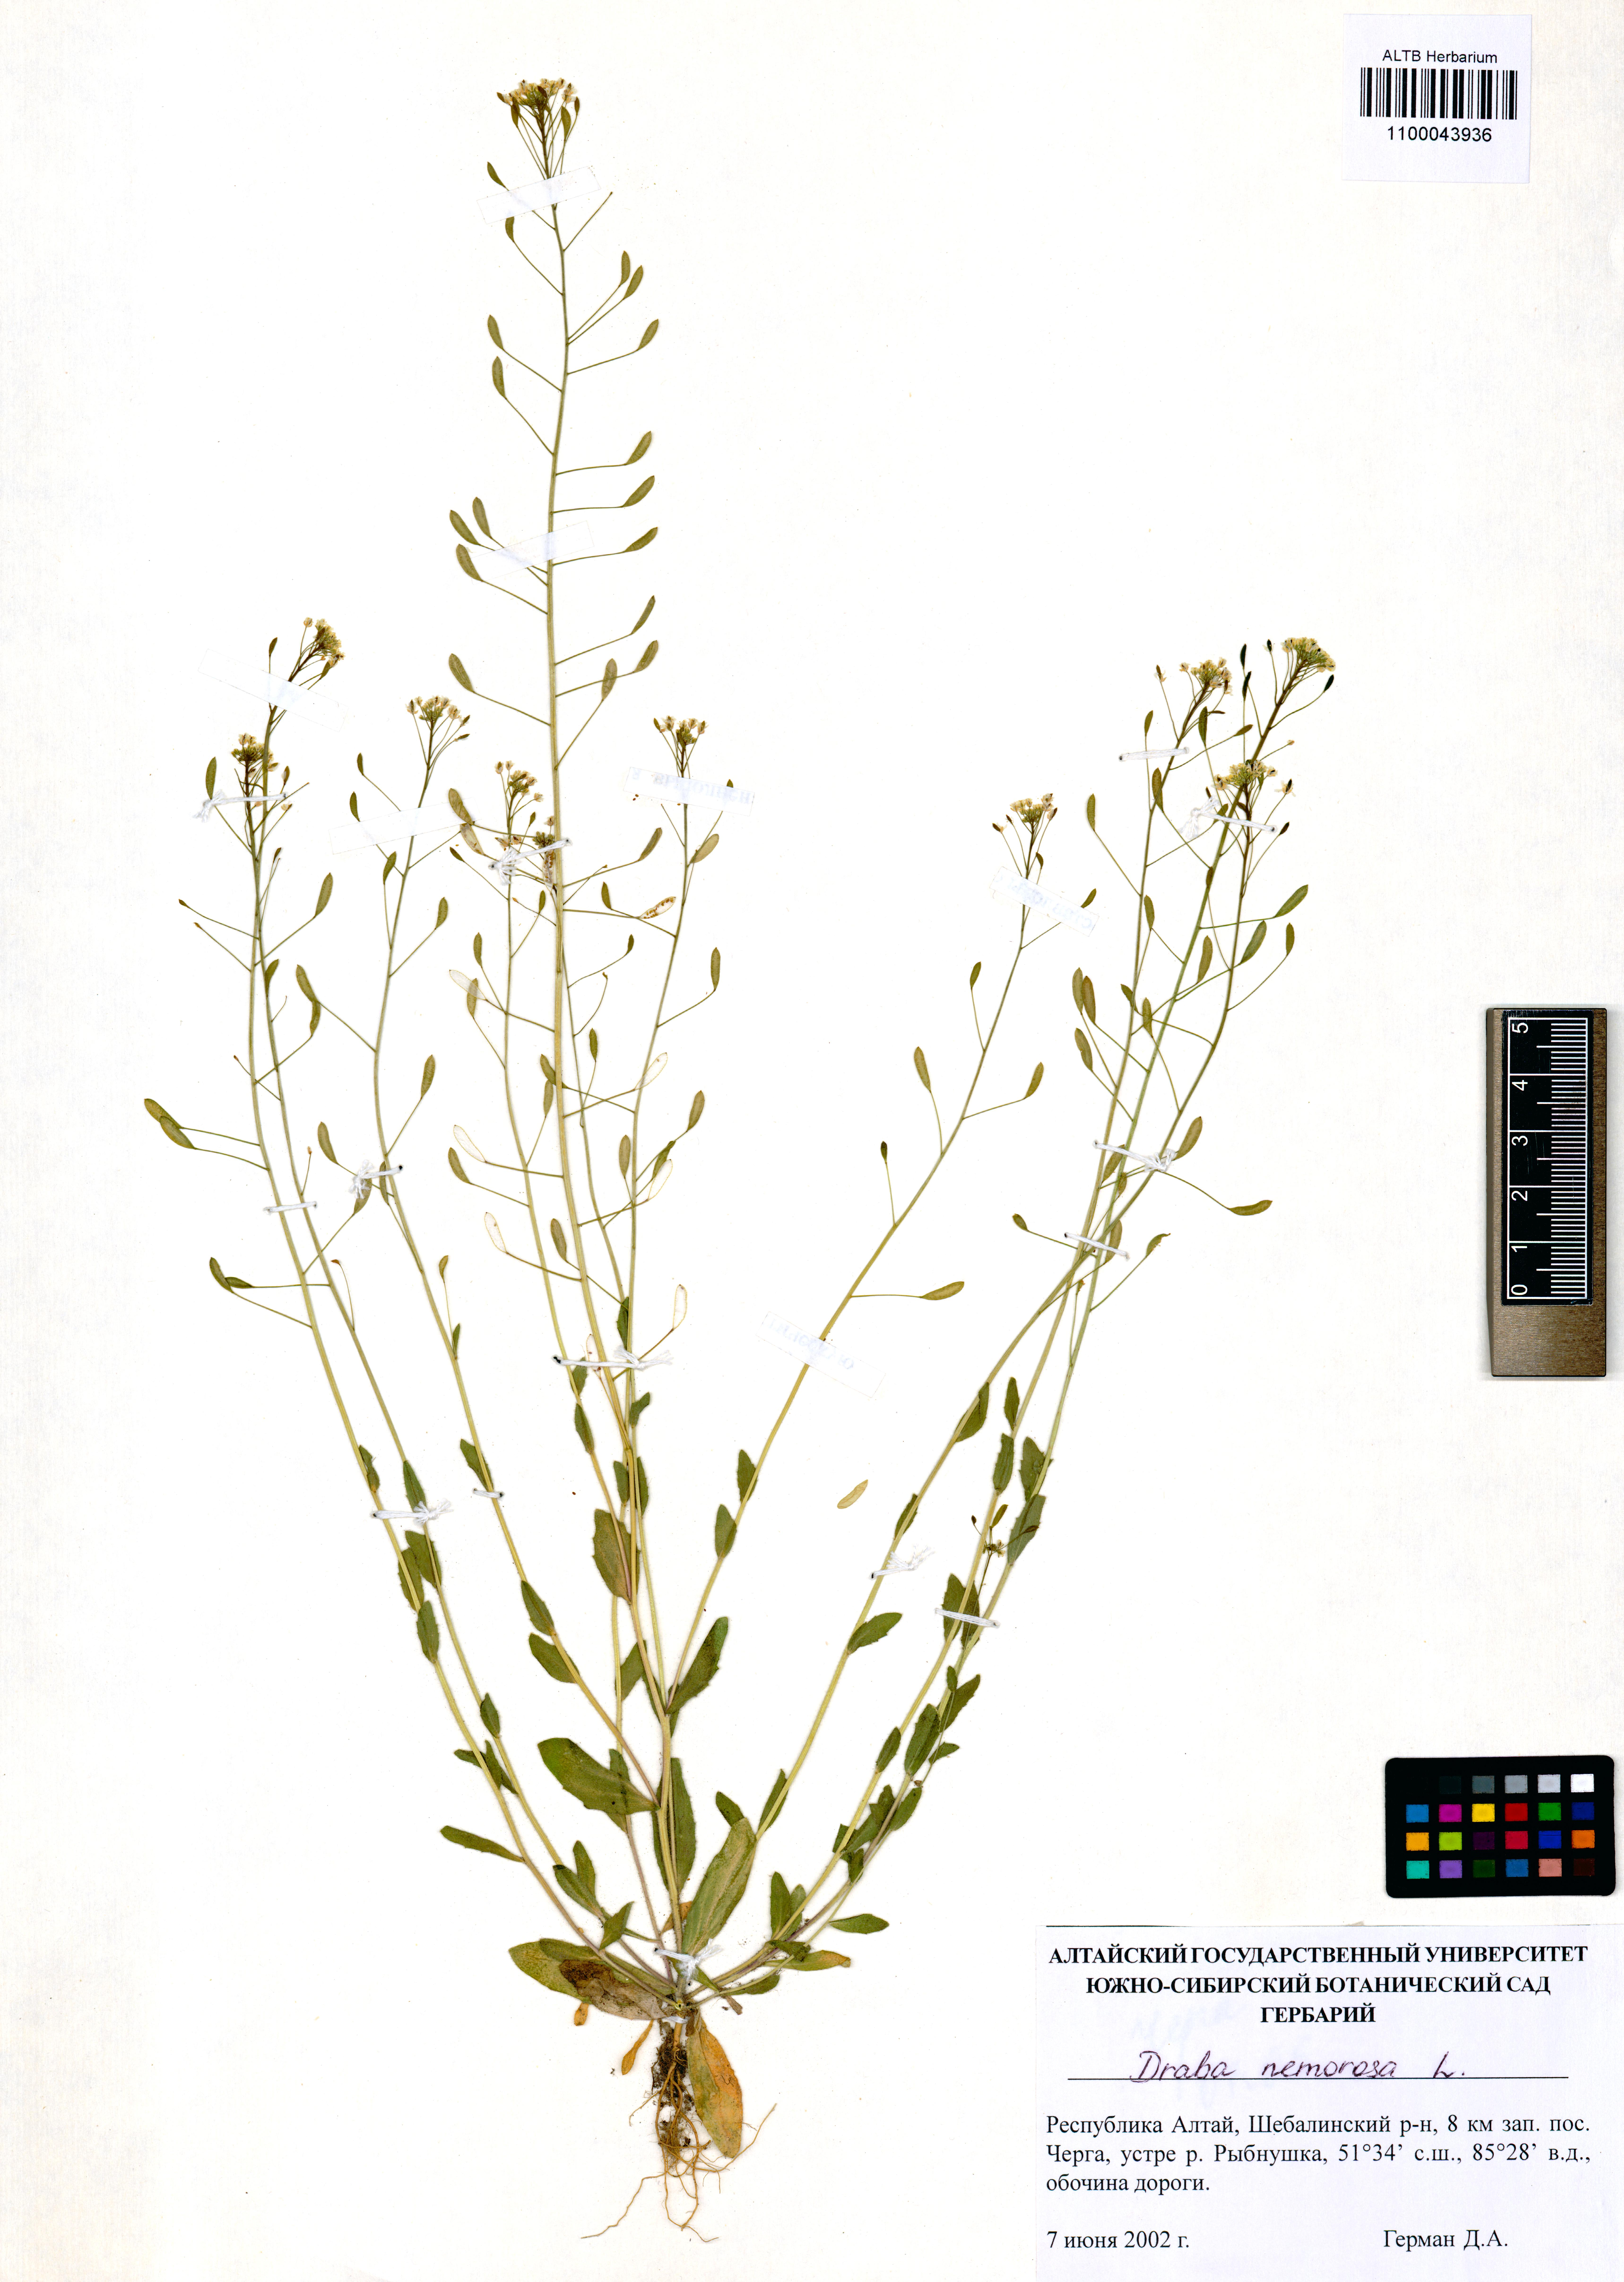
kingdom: Plantae
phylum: Tracheophyta
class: Magnoliopsida
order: Brassicales
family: Brassicaceae
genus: Draba
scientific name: Draba nemorosa
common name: Wood whitlow-grass
